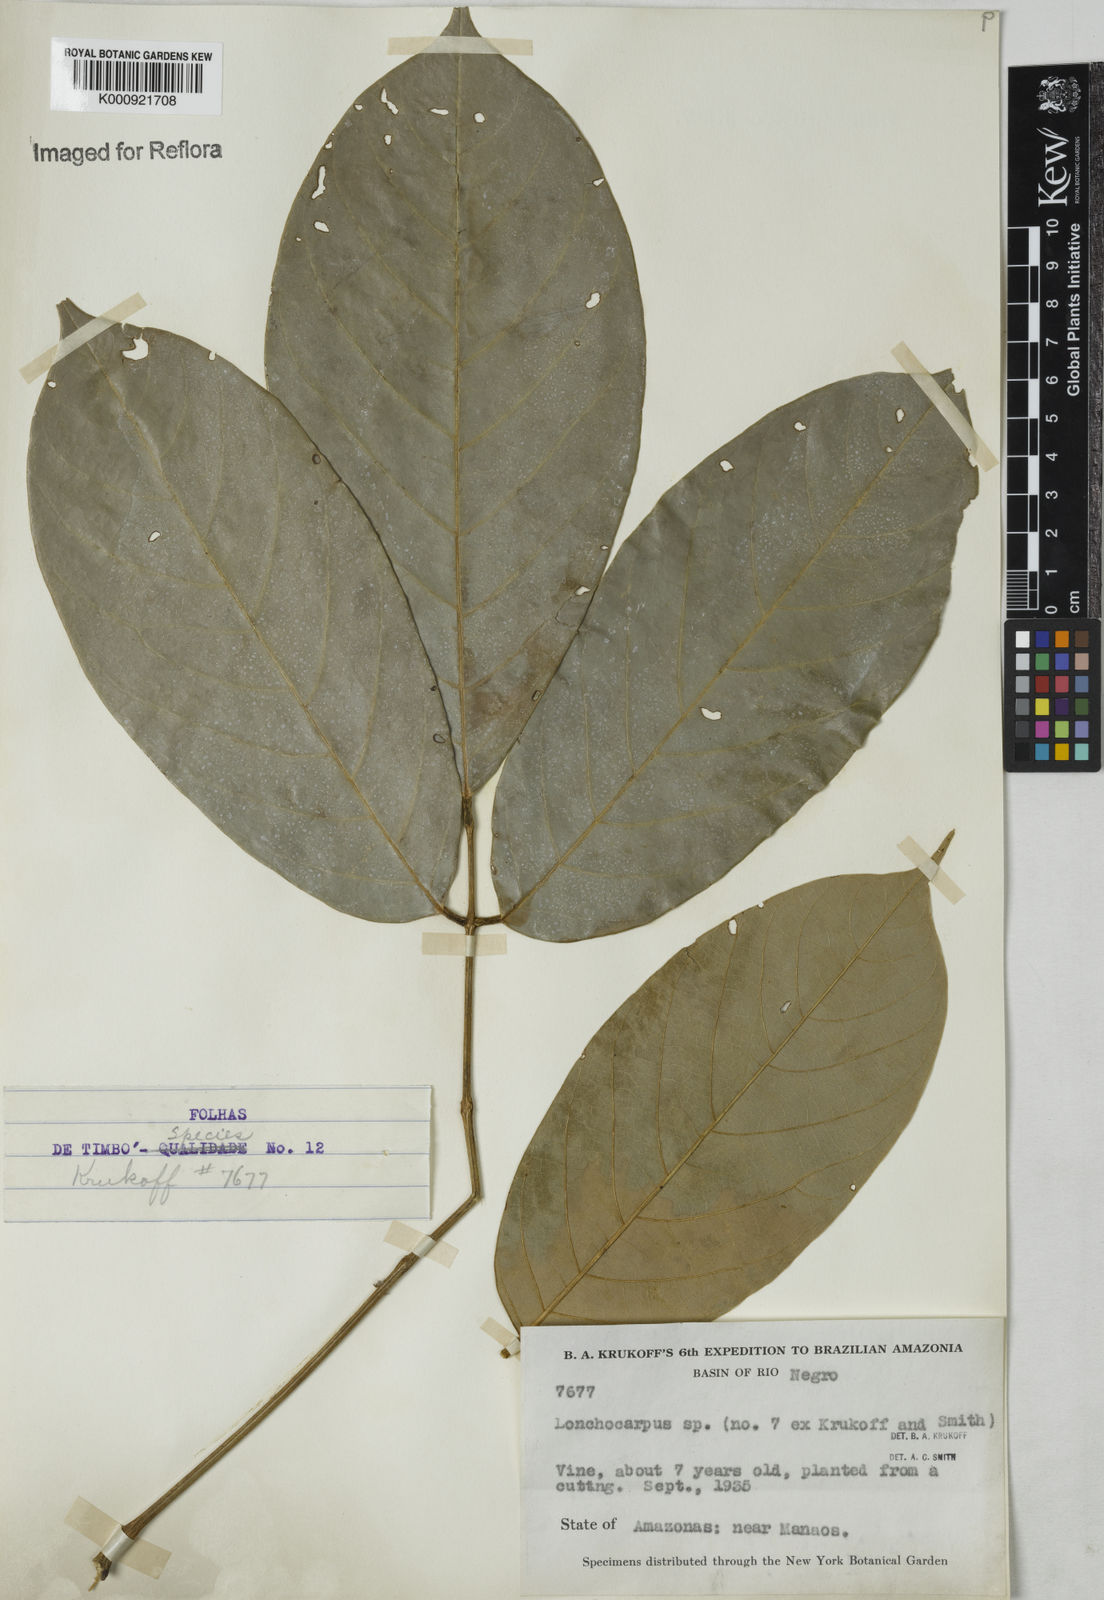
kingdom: Plantae
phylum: Tracheophyta
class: Magnoliopsida
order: Fabales
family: Fabaceae
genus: Lonchocarpus
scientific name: Lonchocarpus
